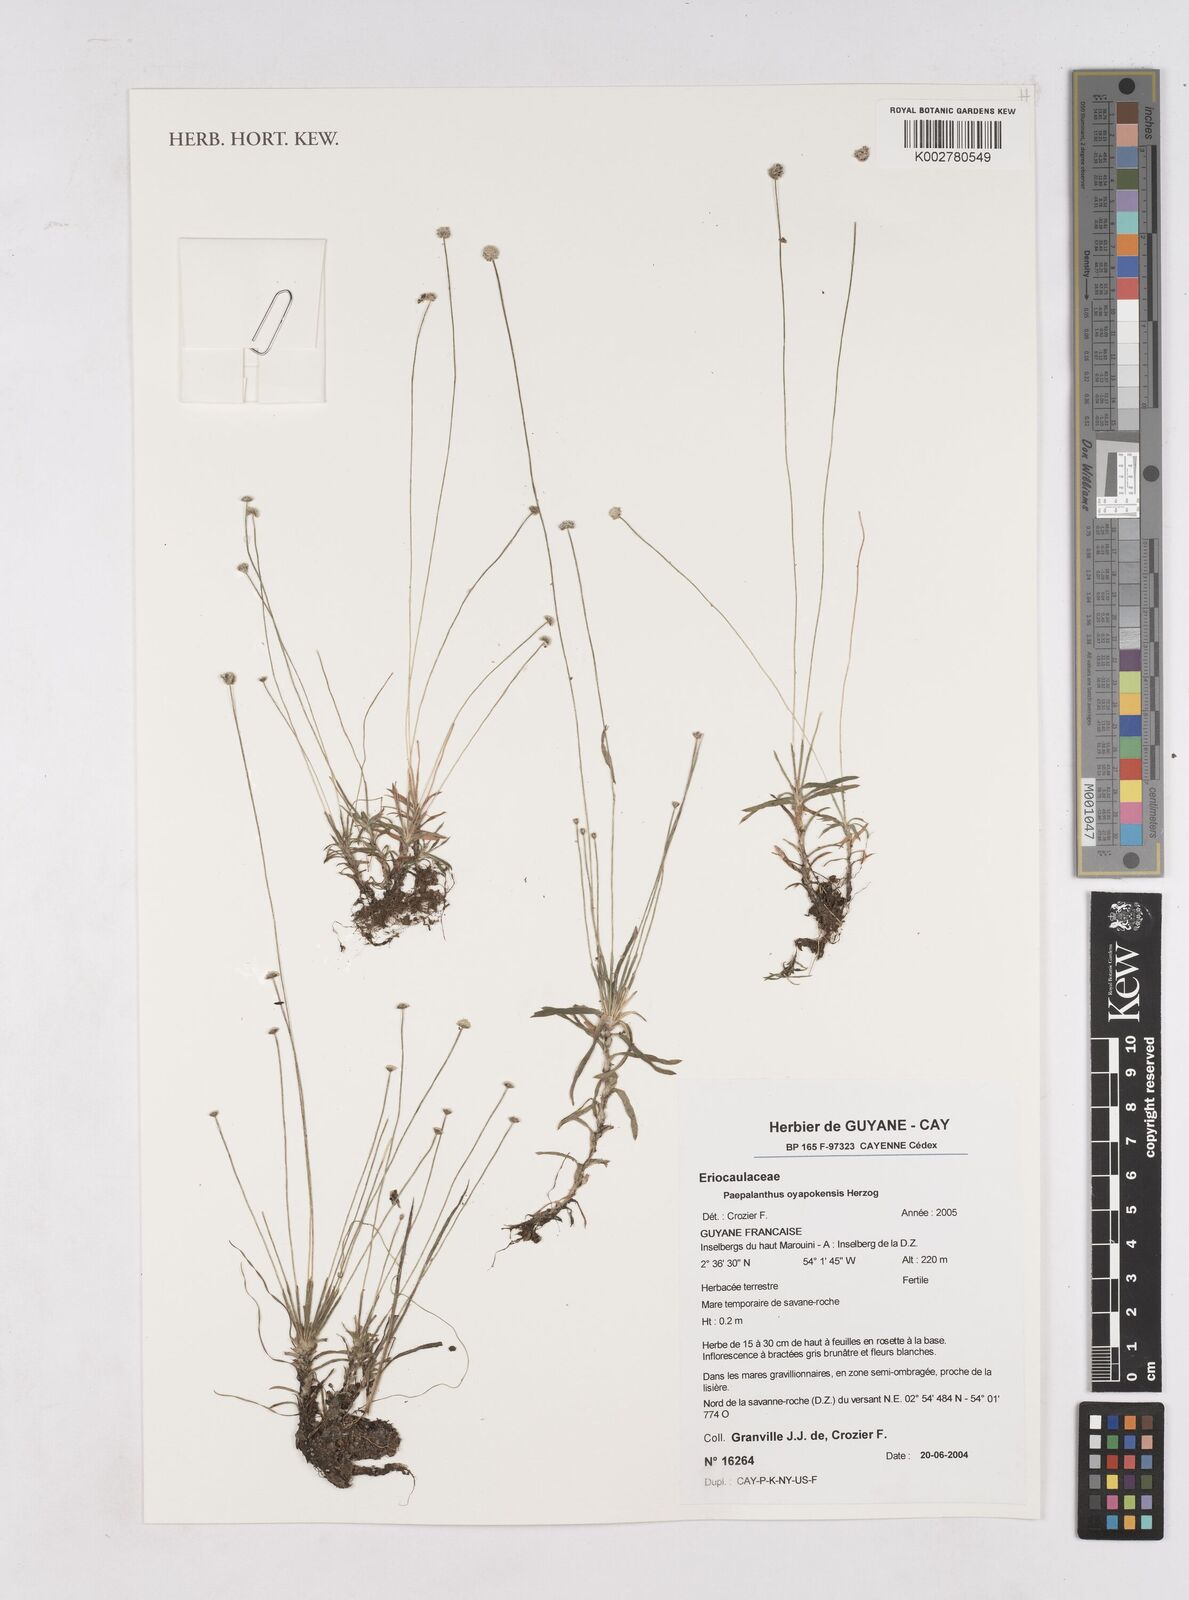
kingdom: Plantae
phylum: Tracheophyta
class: Liliopsida
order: Poales
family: Eriocaulaceae
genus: Paepalanthus
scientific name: Paepalanthus oyapockensis
